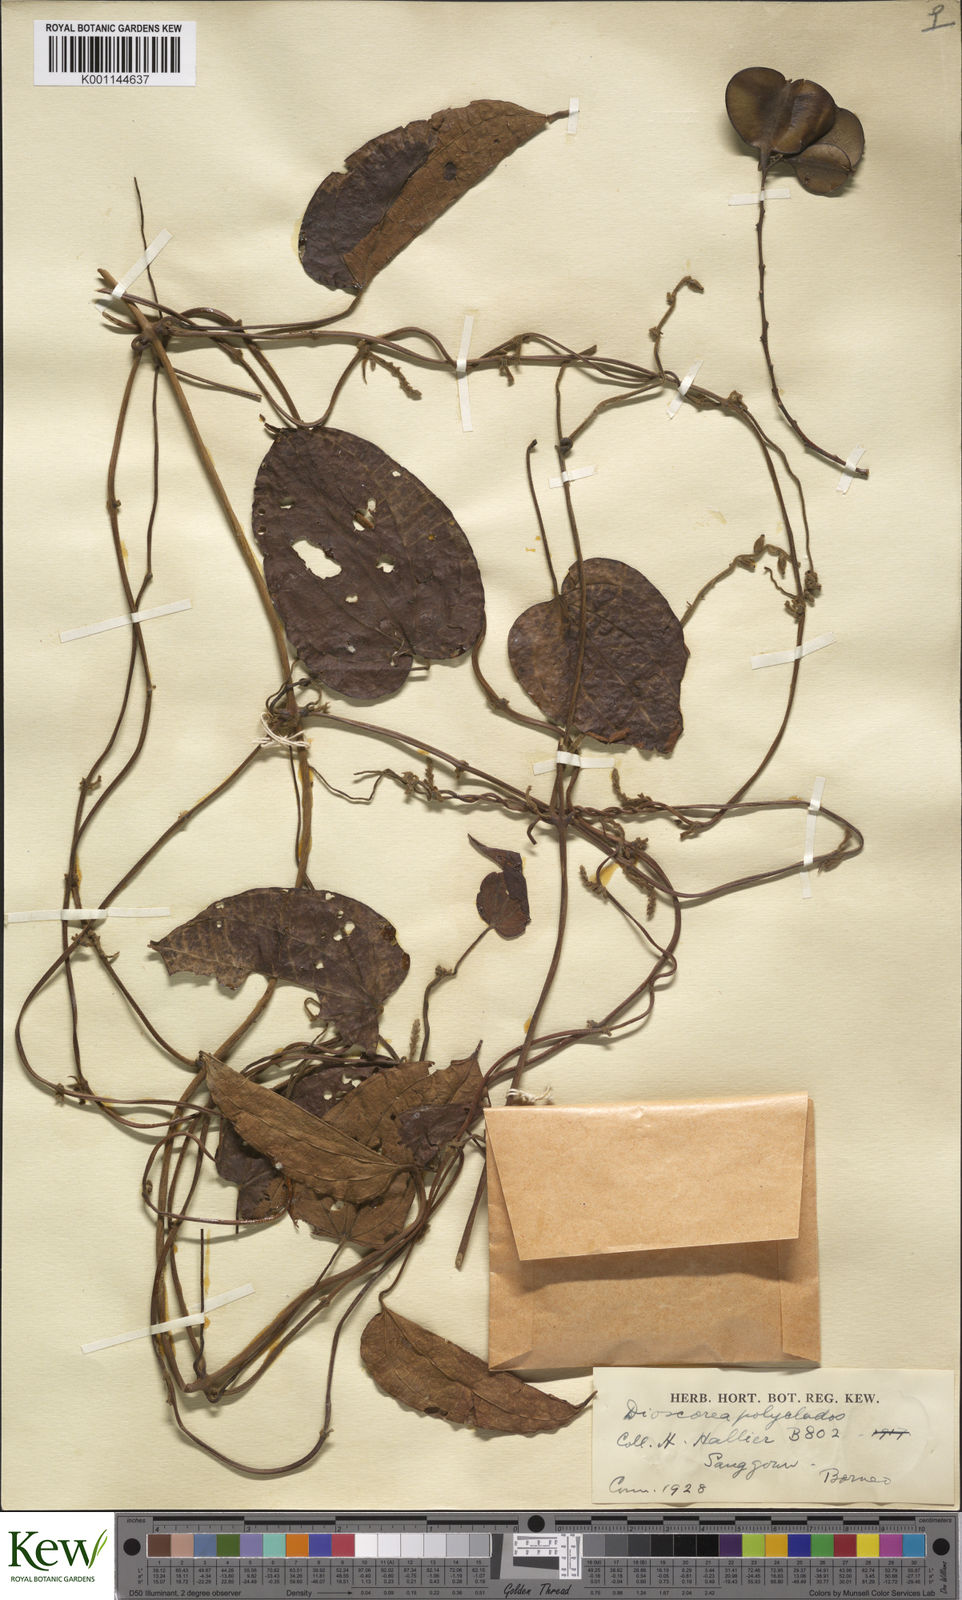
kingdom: Plantae
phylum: Tracheophyta
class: Liliopsida
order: Dioscoreales
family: Dioscoreaceae
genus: Dioscorea
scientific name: Dioscorea polyclados
